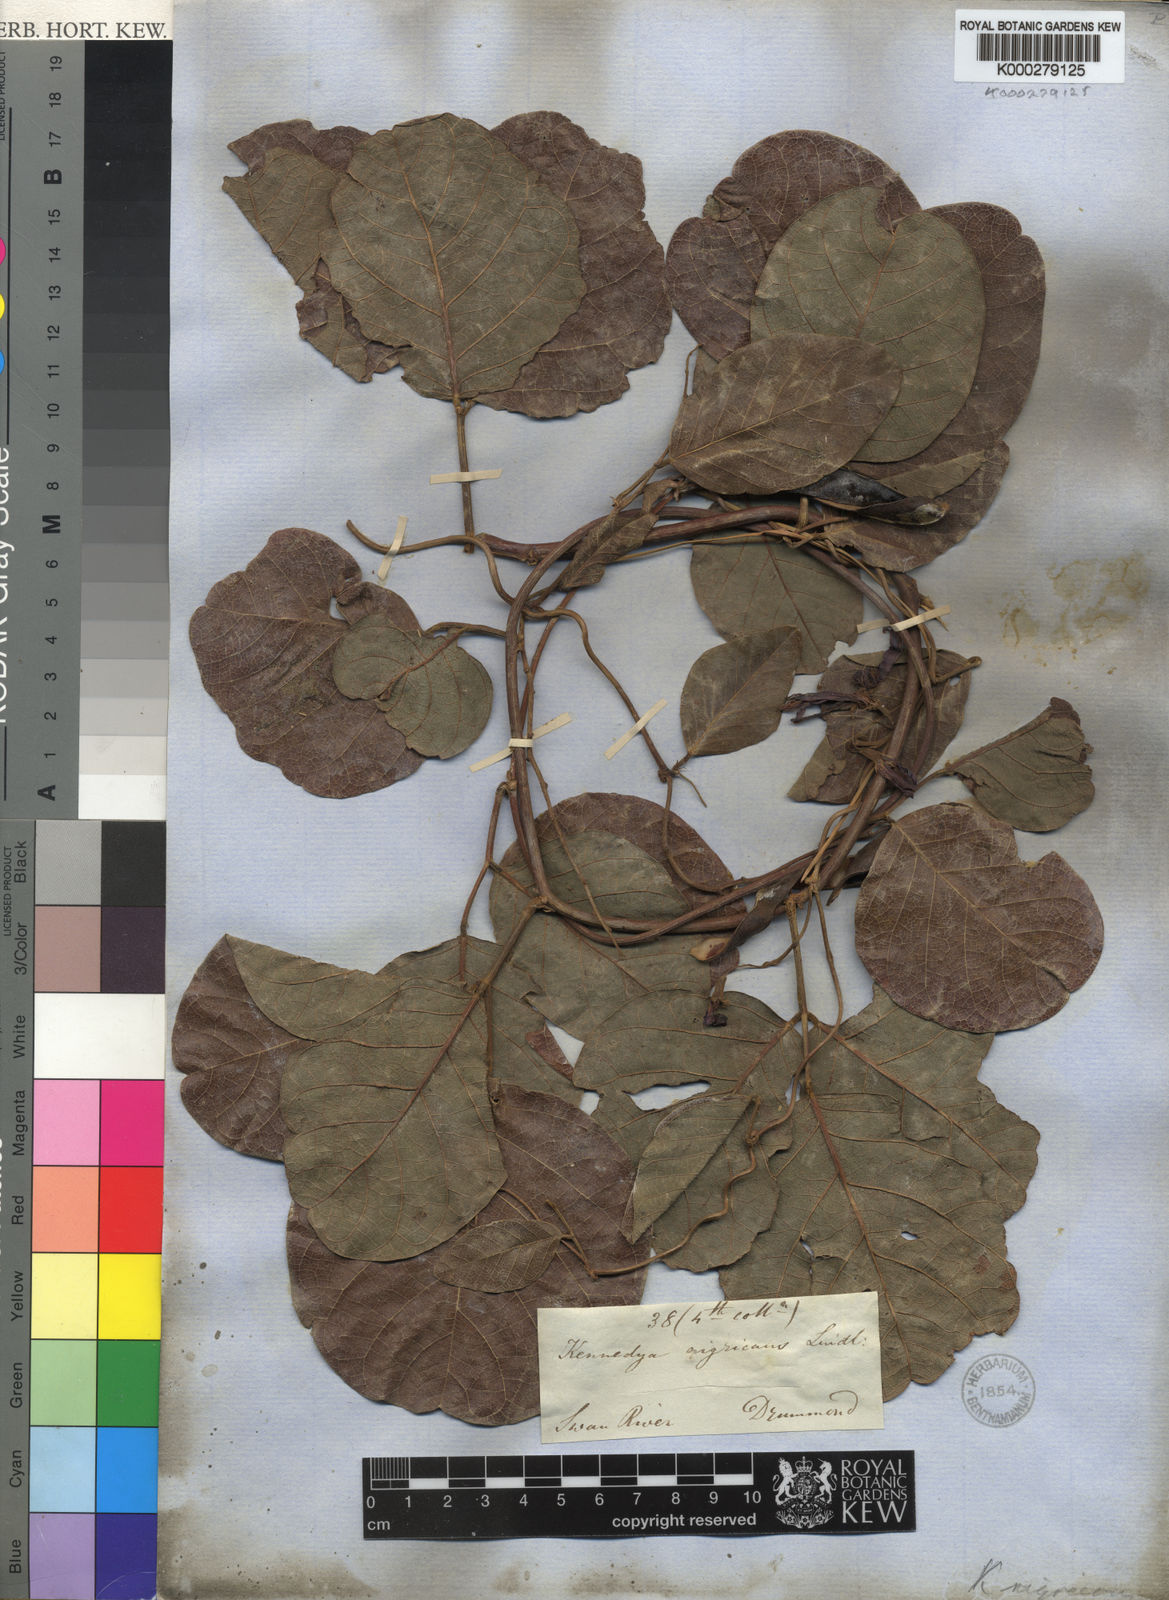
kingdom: Plantae
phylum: Tracheophyta
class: Magnoliopsida
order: Fabales
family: Fabaceae
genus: Kennedia
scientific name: Kennedia nigricans
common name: Black-bean
